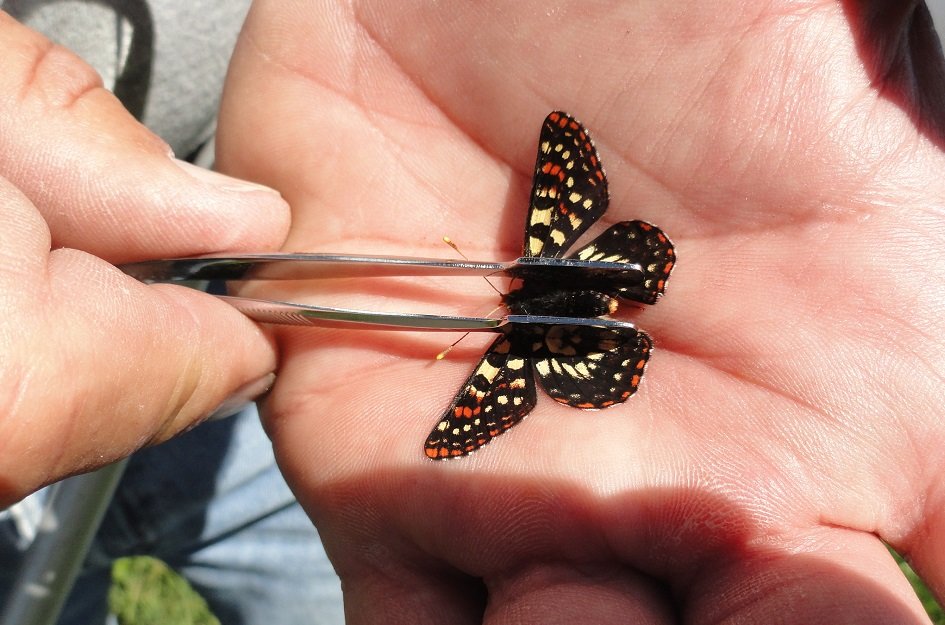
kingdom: Animalia
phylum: Arthropoda
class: Insecta
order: Lepidoptera
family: Nymphalidae
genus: Occidryas
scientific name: Occidryas colon
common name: Snowberry Checkerspot
